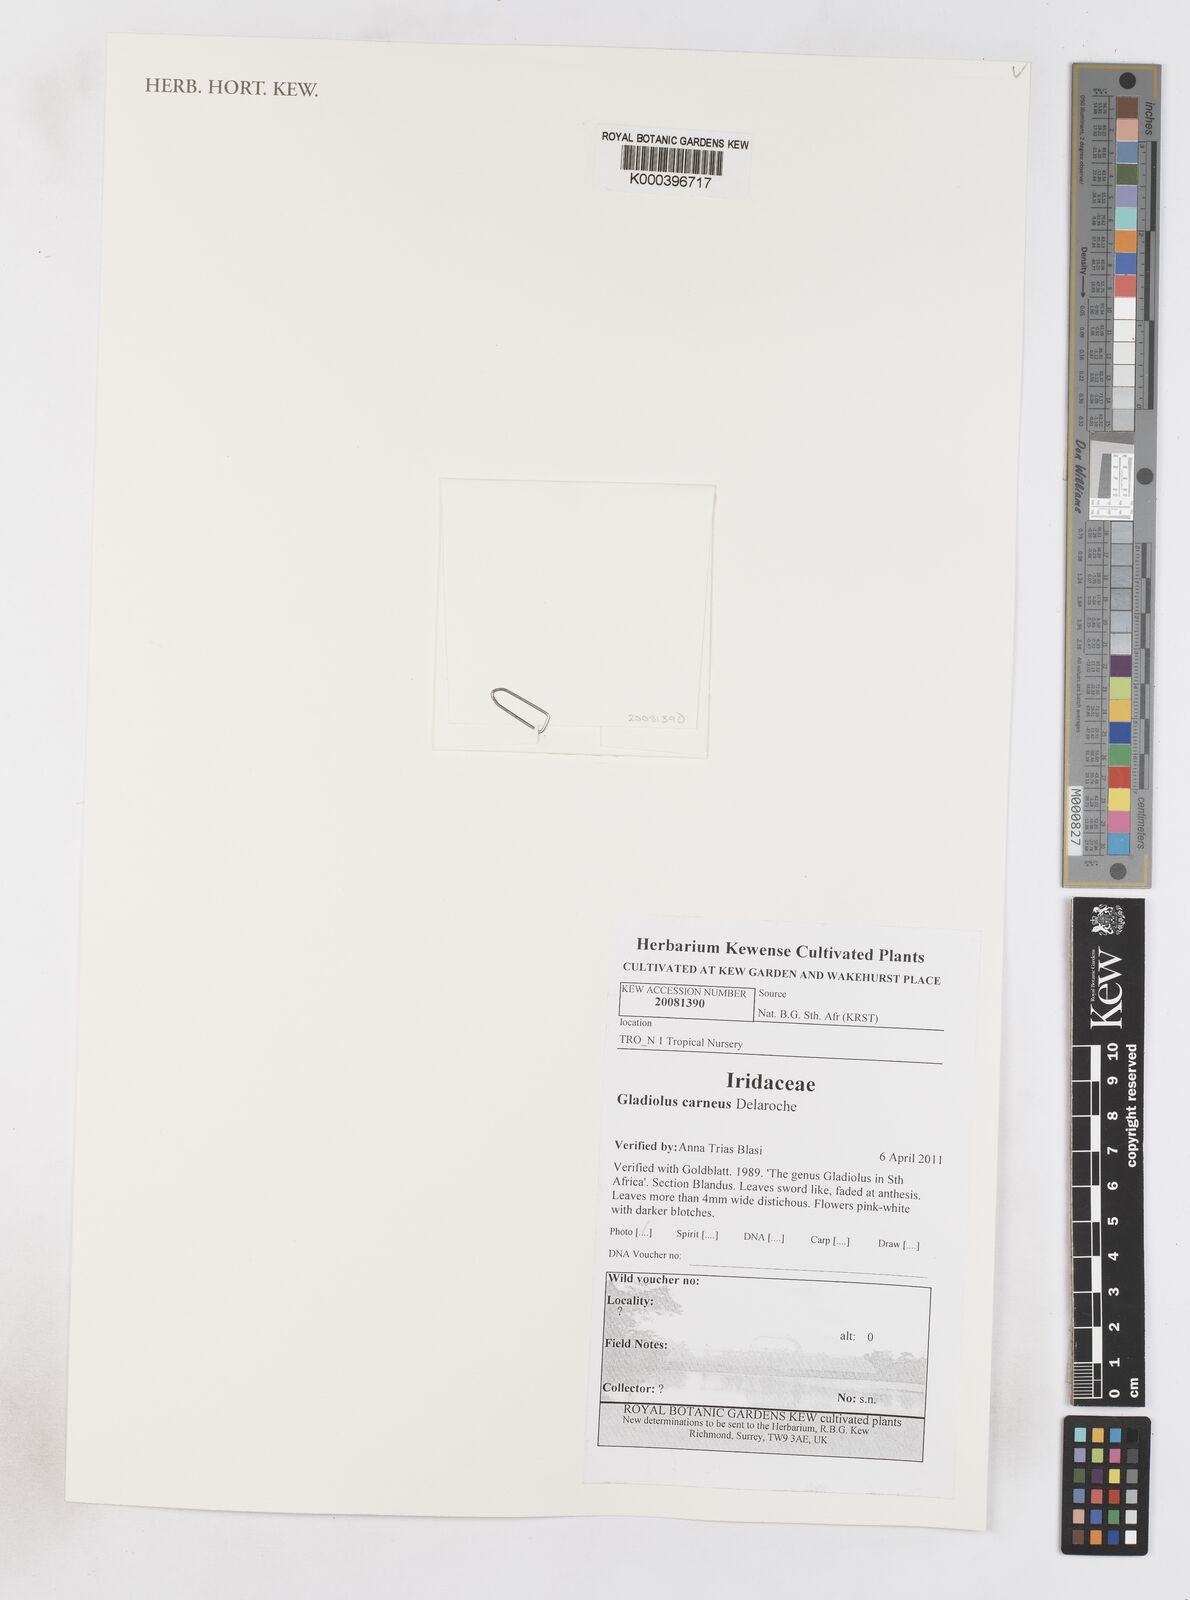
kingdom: Plantae
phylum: Tracheophyta
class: Liliopsida
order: Asparagales
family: Iridaceae
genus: Gladiolus
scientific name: Gladiolus carneus
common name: Painted-lady
